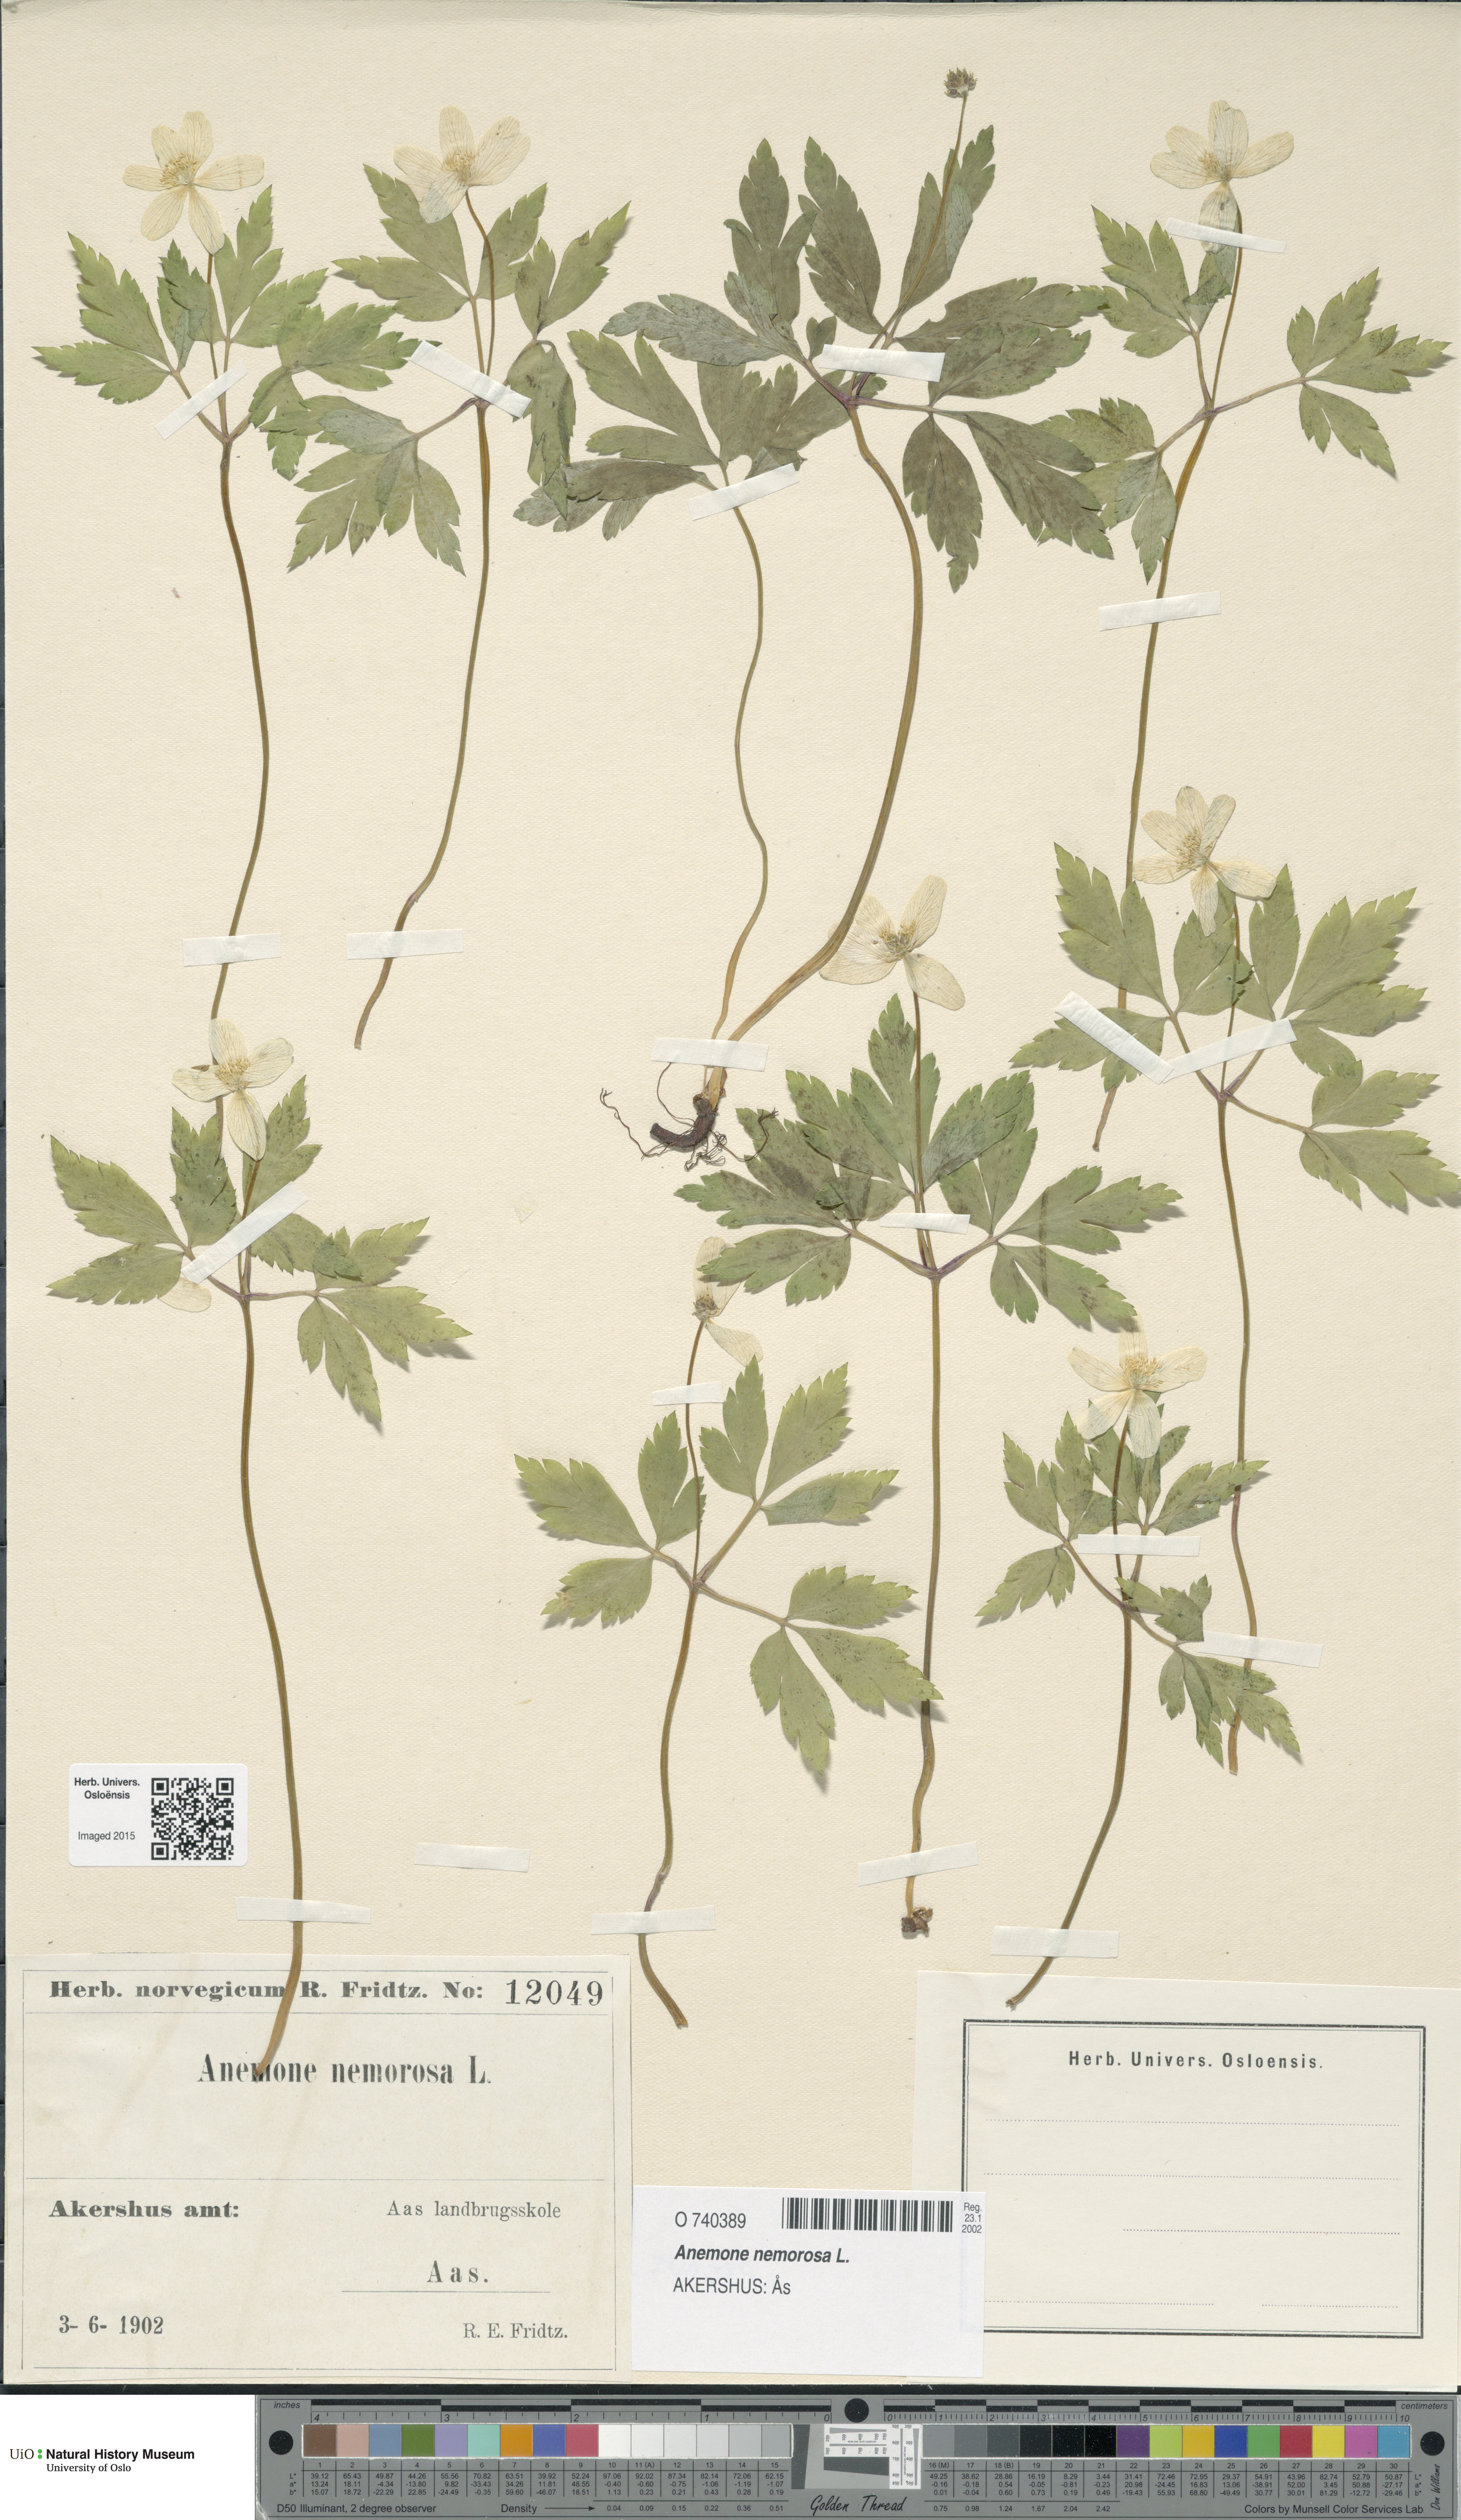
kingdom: Plantae
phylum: Tracheophyta
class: Magnoliopsida
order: Ranunculales
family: Ranunculaceae
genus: Anemone
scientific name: Anemone nemorosa
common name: Wood anemone
